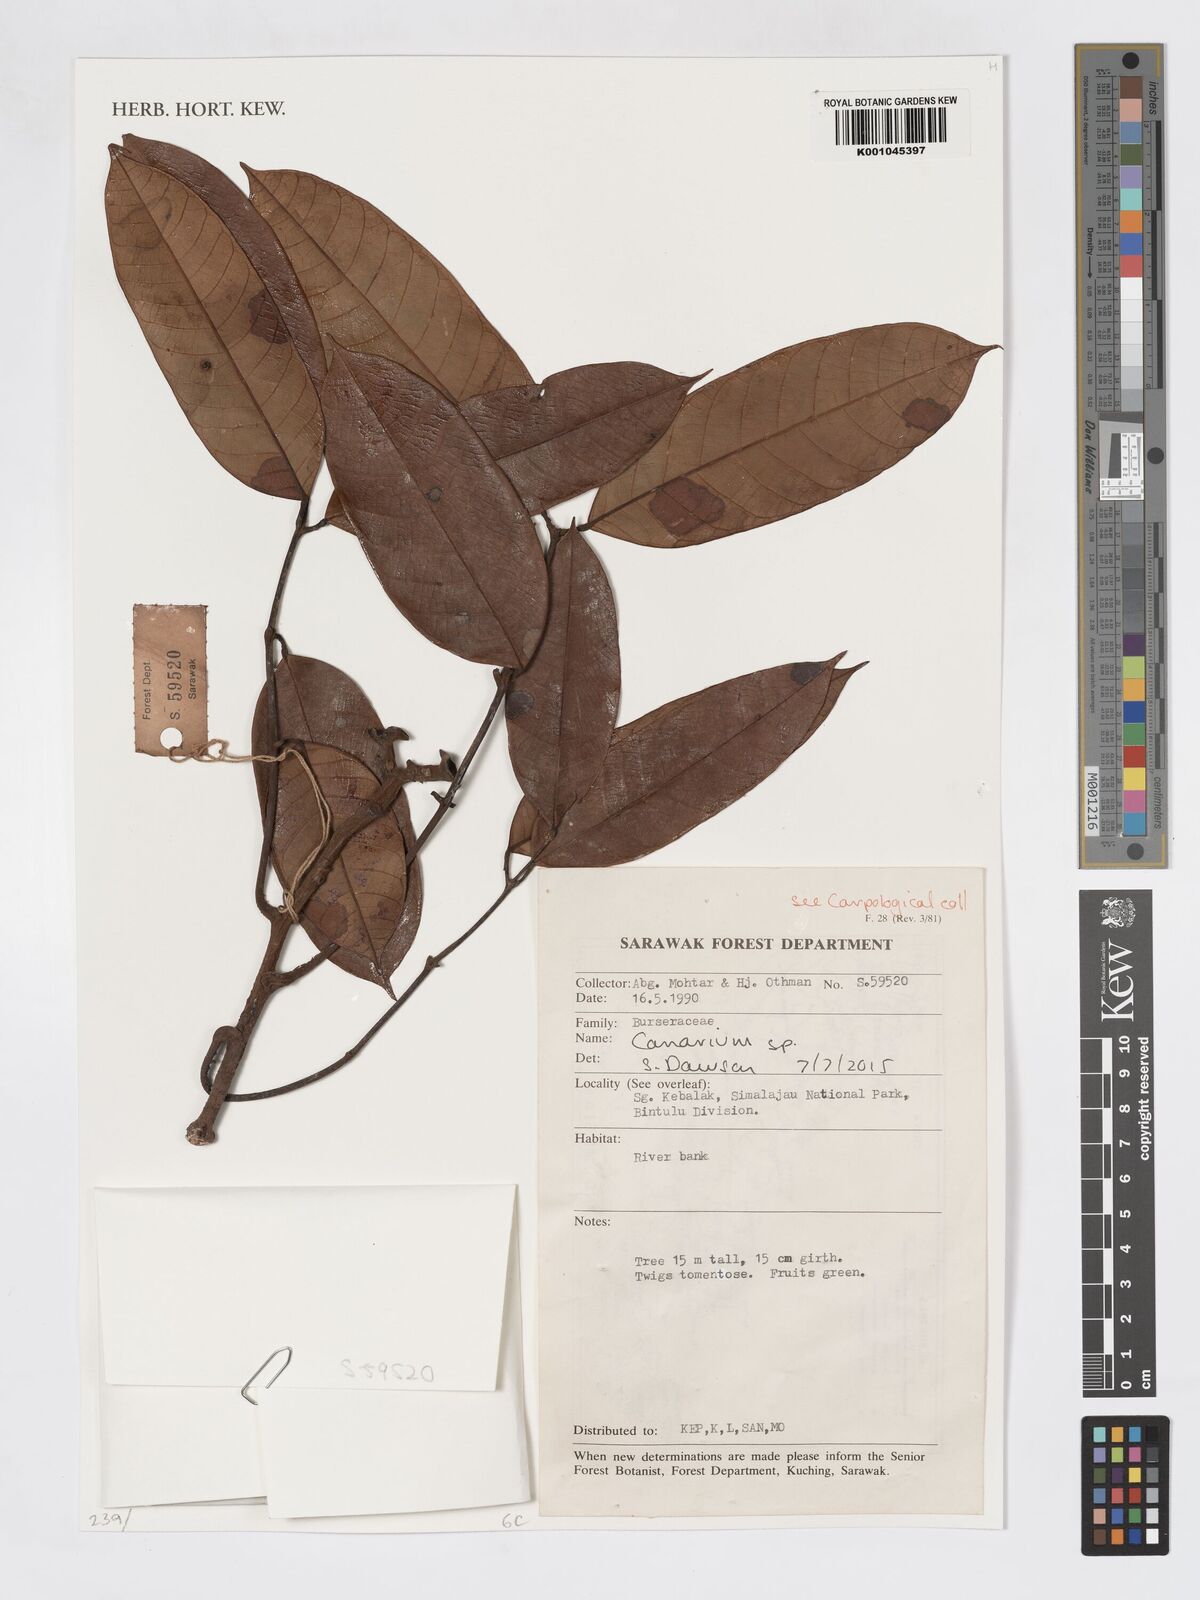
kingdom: Plantae
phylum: Tracheophyta
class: Magnoliopsida
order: Sapindales
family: Burseraceae
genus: Canarium
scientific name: Canarium
